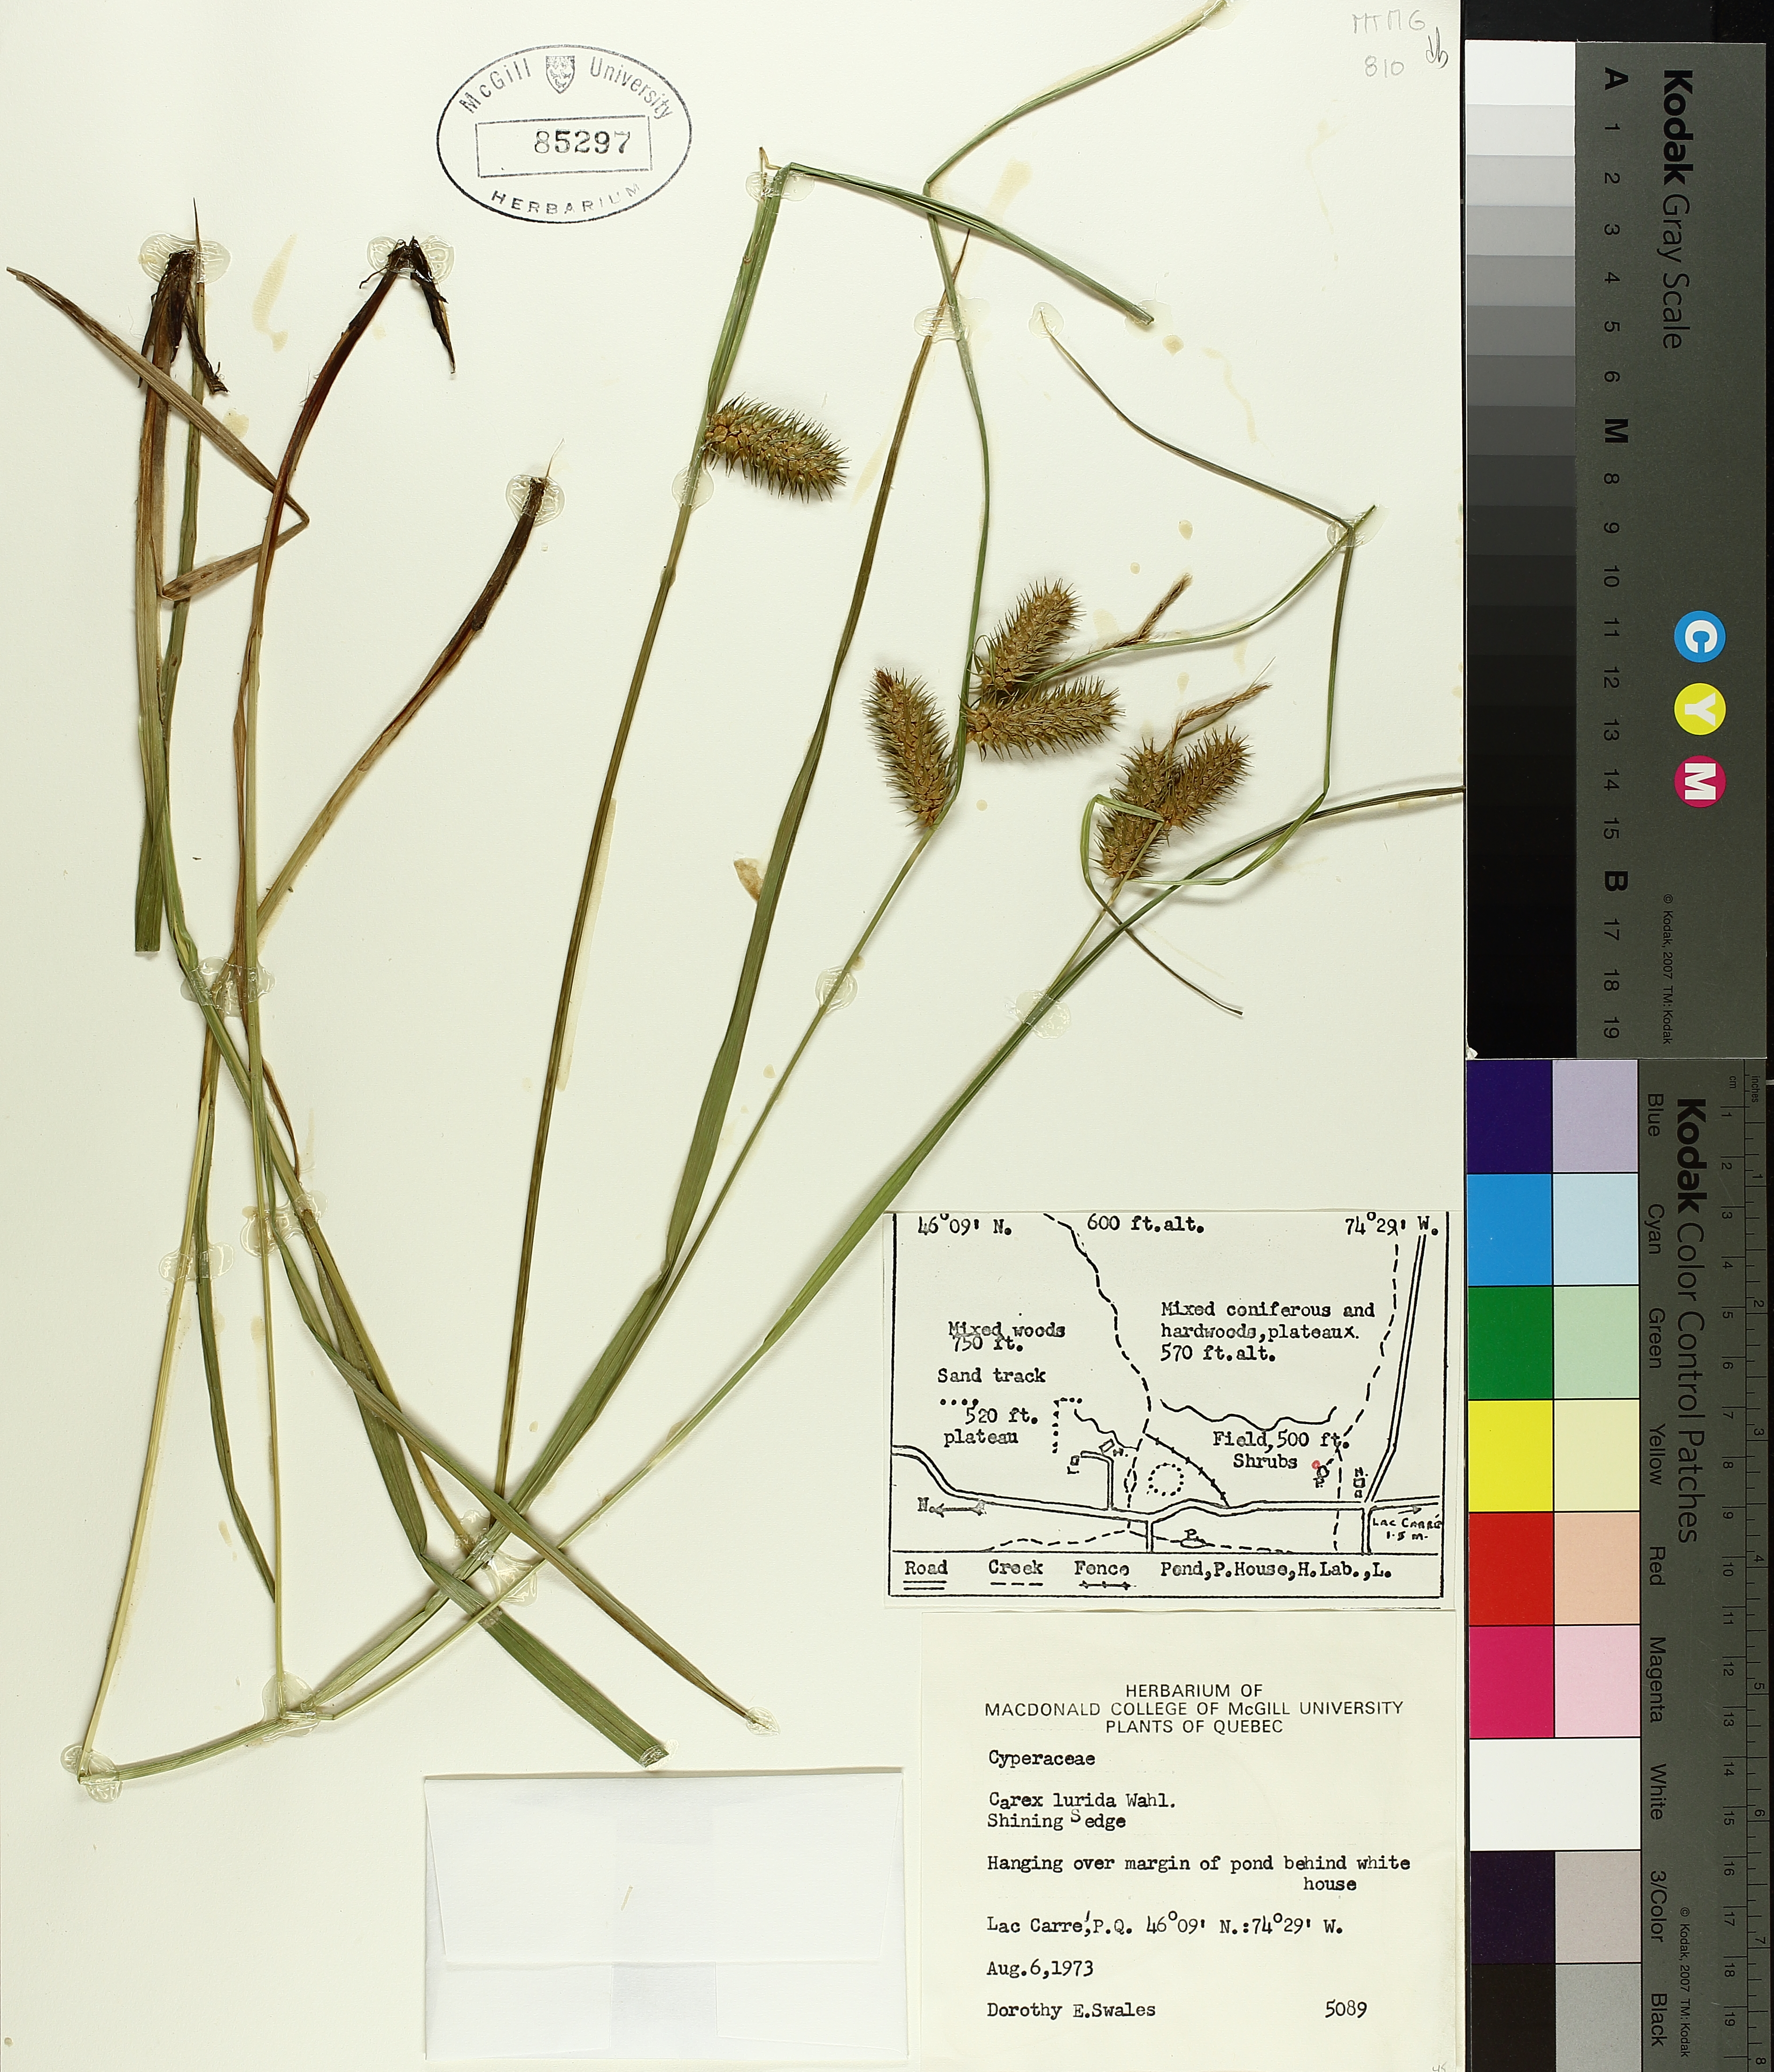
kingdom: Plantae
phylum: Tracheophyta
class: Liliopsida
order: Poales
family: Cyperaceae
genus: Carex
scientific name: Carex lurida
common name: Sallow sedge
